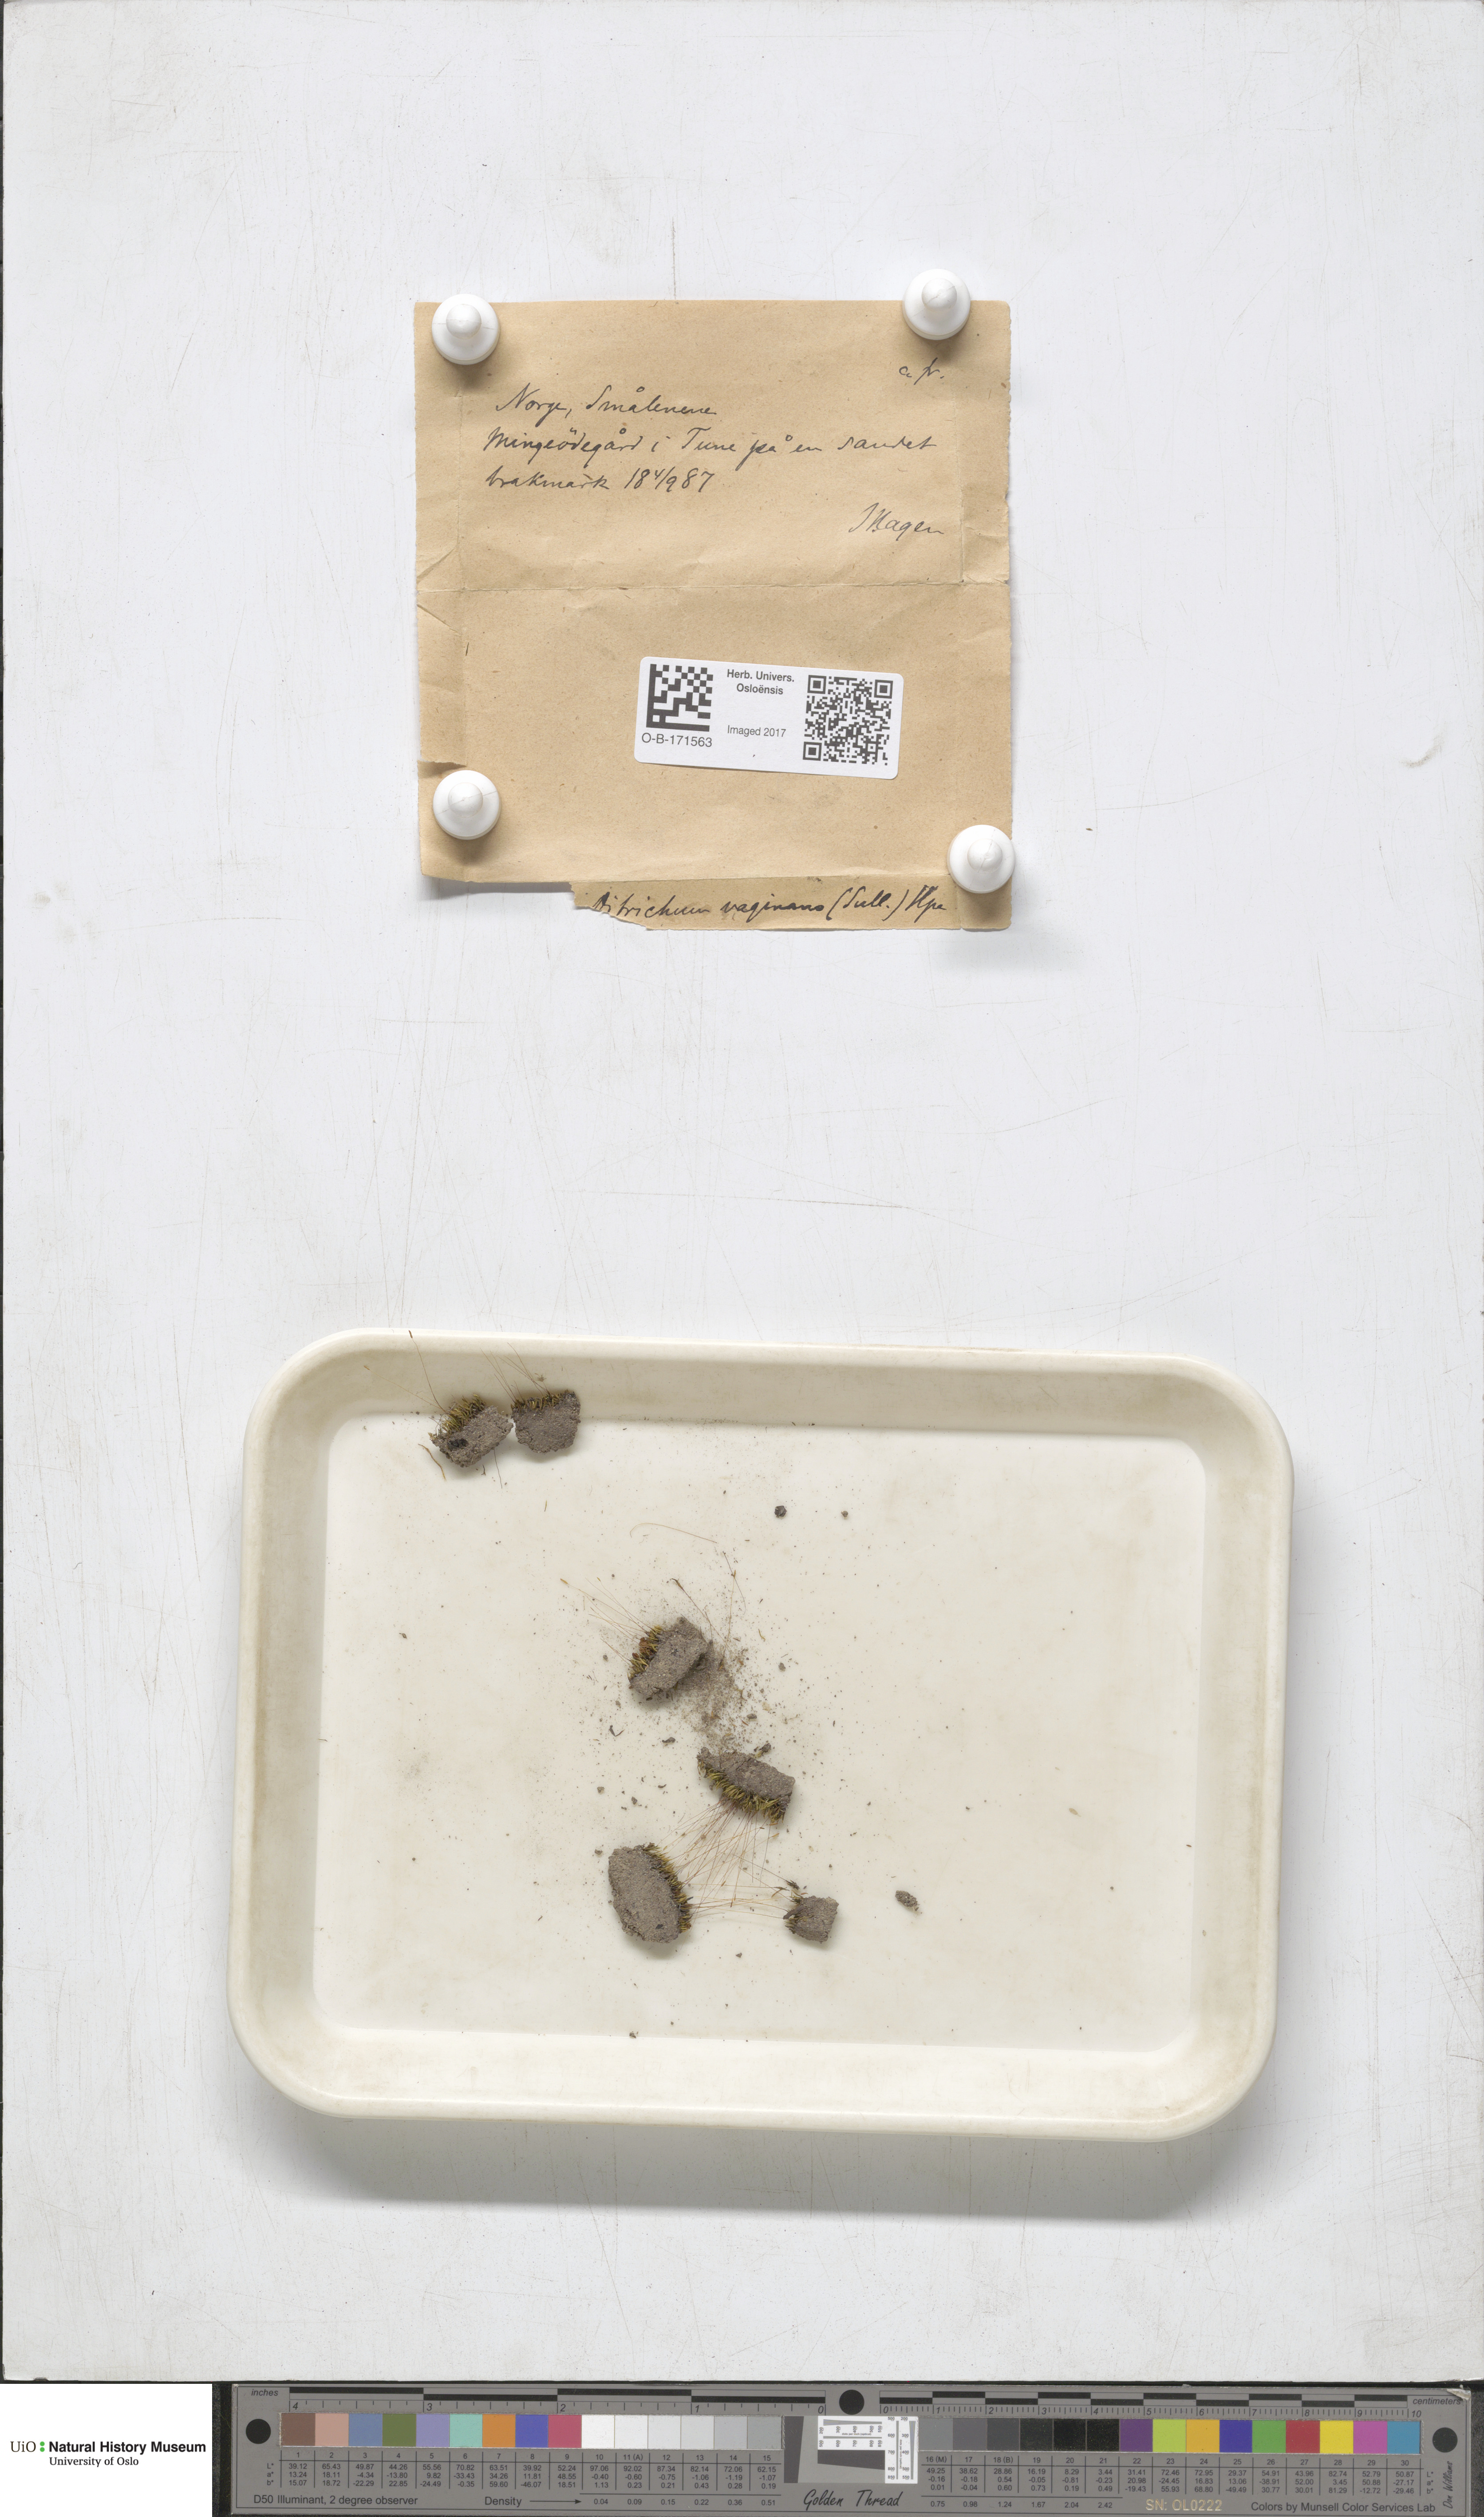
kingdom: Plantae
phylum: Bryophyta
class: Bryopsida
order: Dicranales
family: Ditrichaceae
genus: Ditrichum
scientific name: Ditrichum lineare
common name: Dark cow-hair moss
